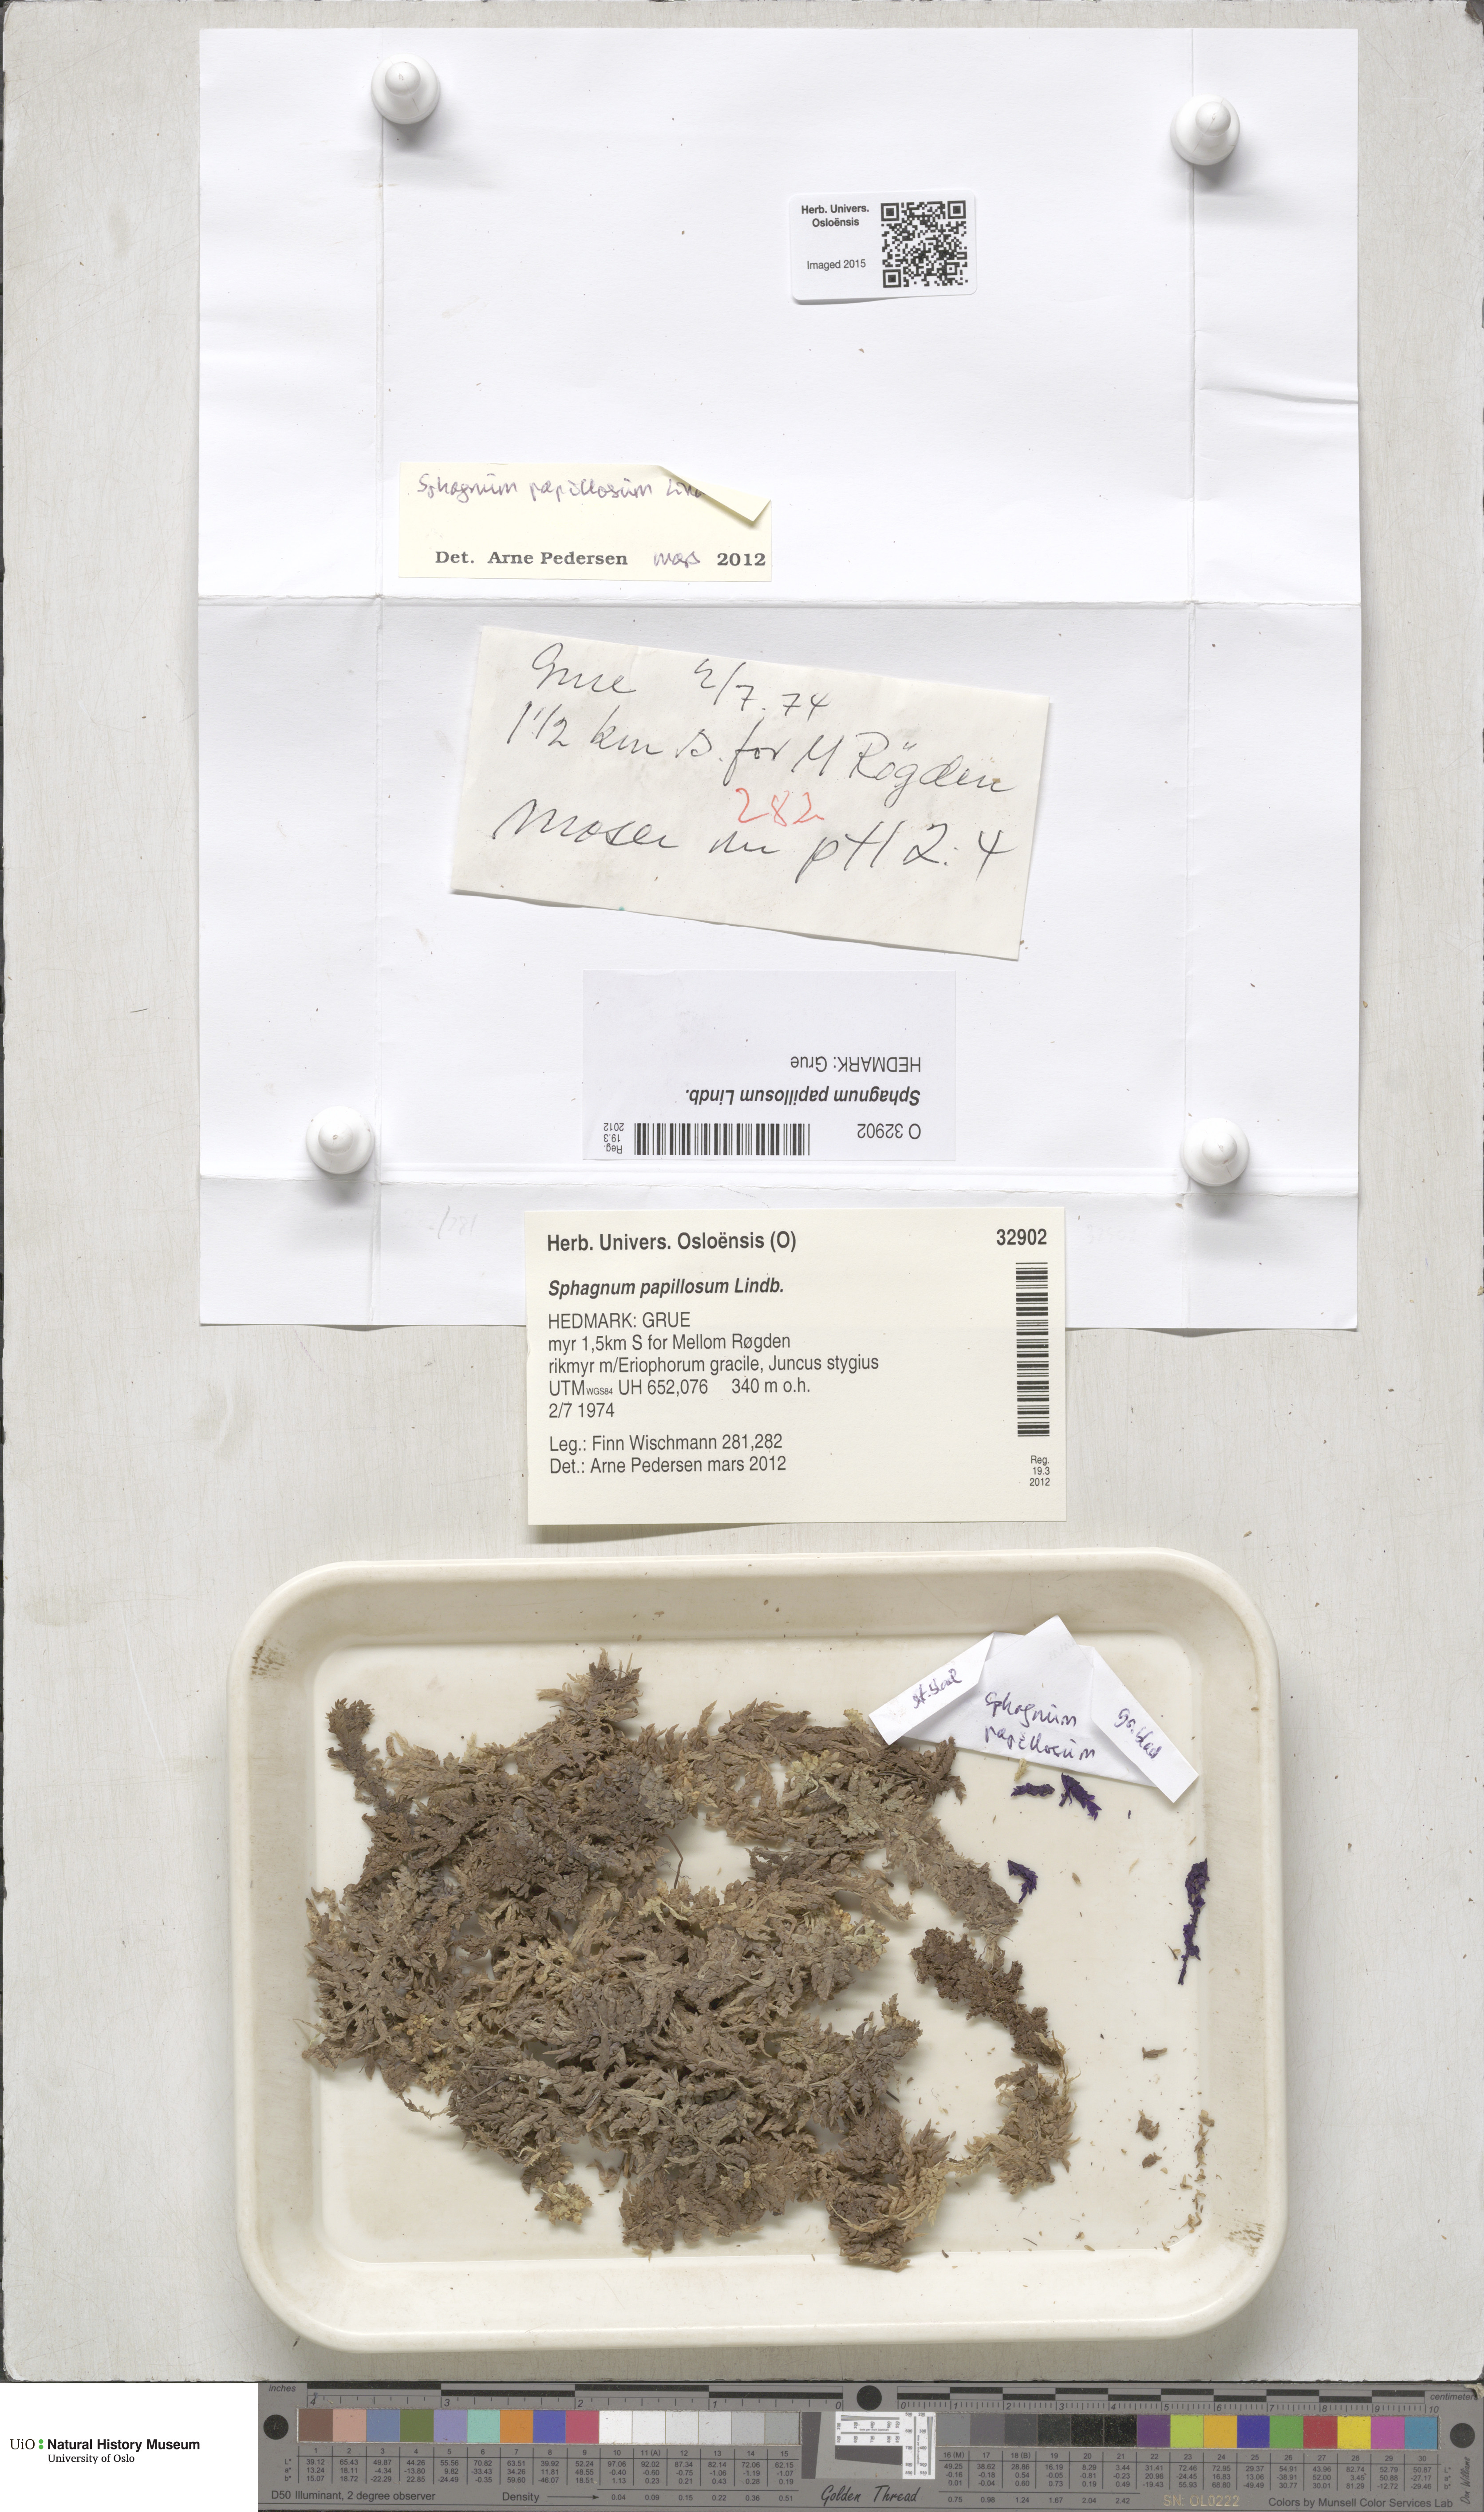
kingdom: Plantae
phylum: Bryophyta
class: Sphagnopsida
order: Sphagnales
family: Sphagnaceae
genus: Sphagnum
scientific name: Sphagnum papillosum
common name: Papillose peat moss
